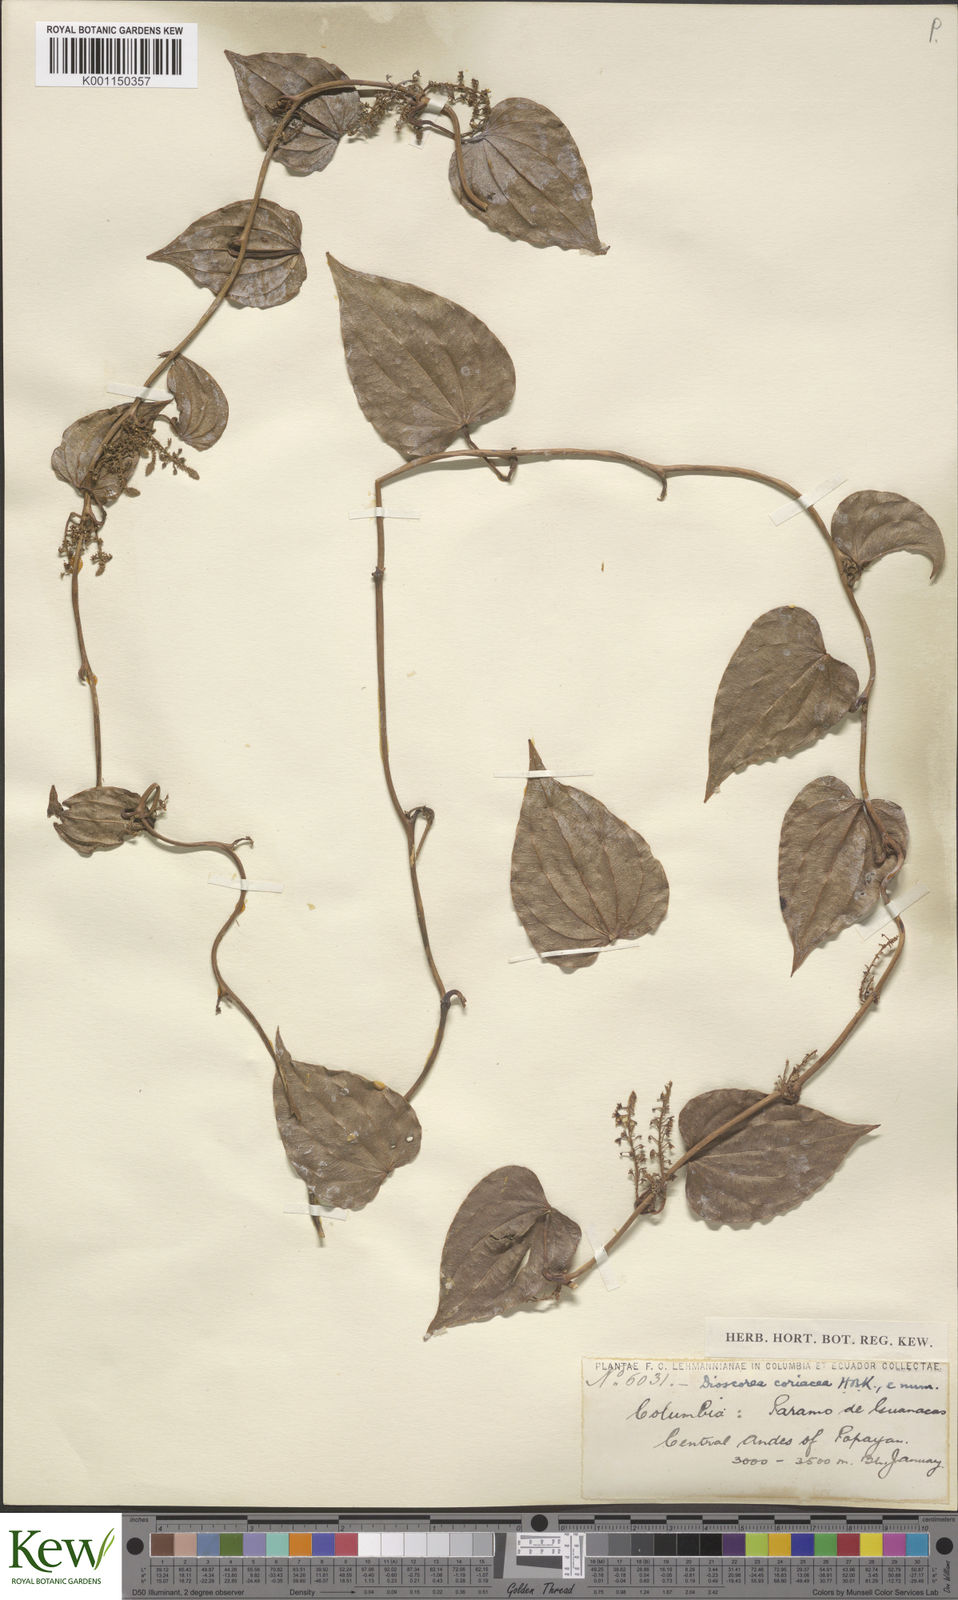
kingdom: Plantae
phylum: Tracheophyta
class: Liliopsida
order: Dioscoreales
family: Dioscoreaceae
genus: Dioscorea
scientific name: Dioscorea coriacea
